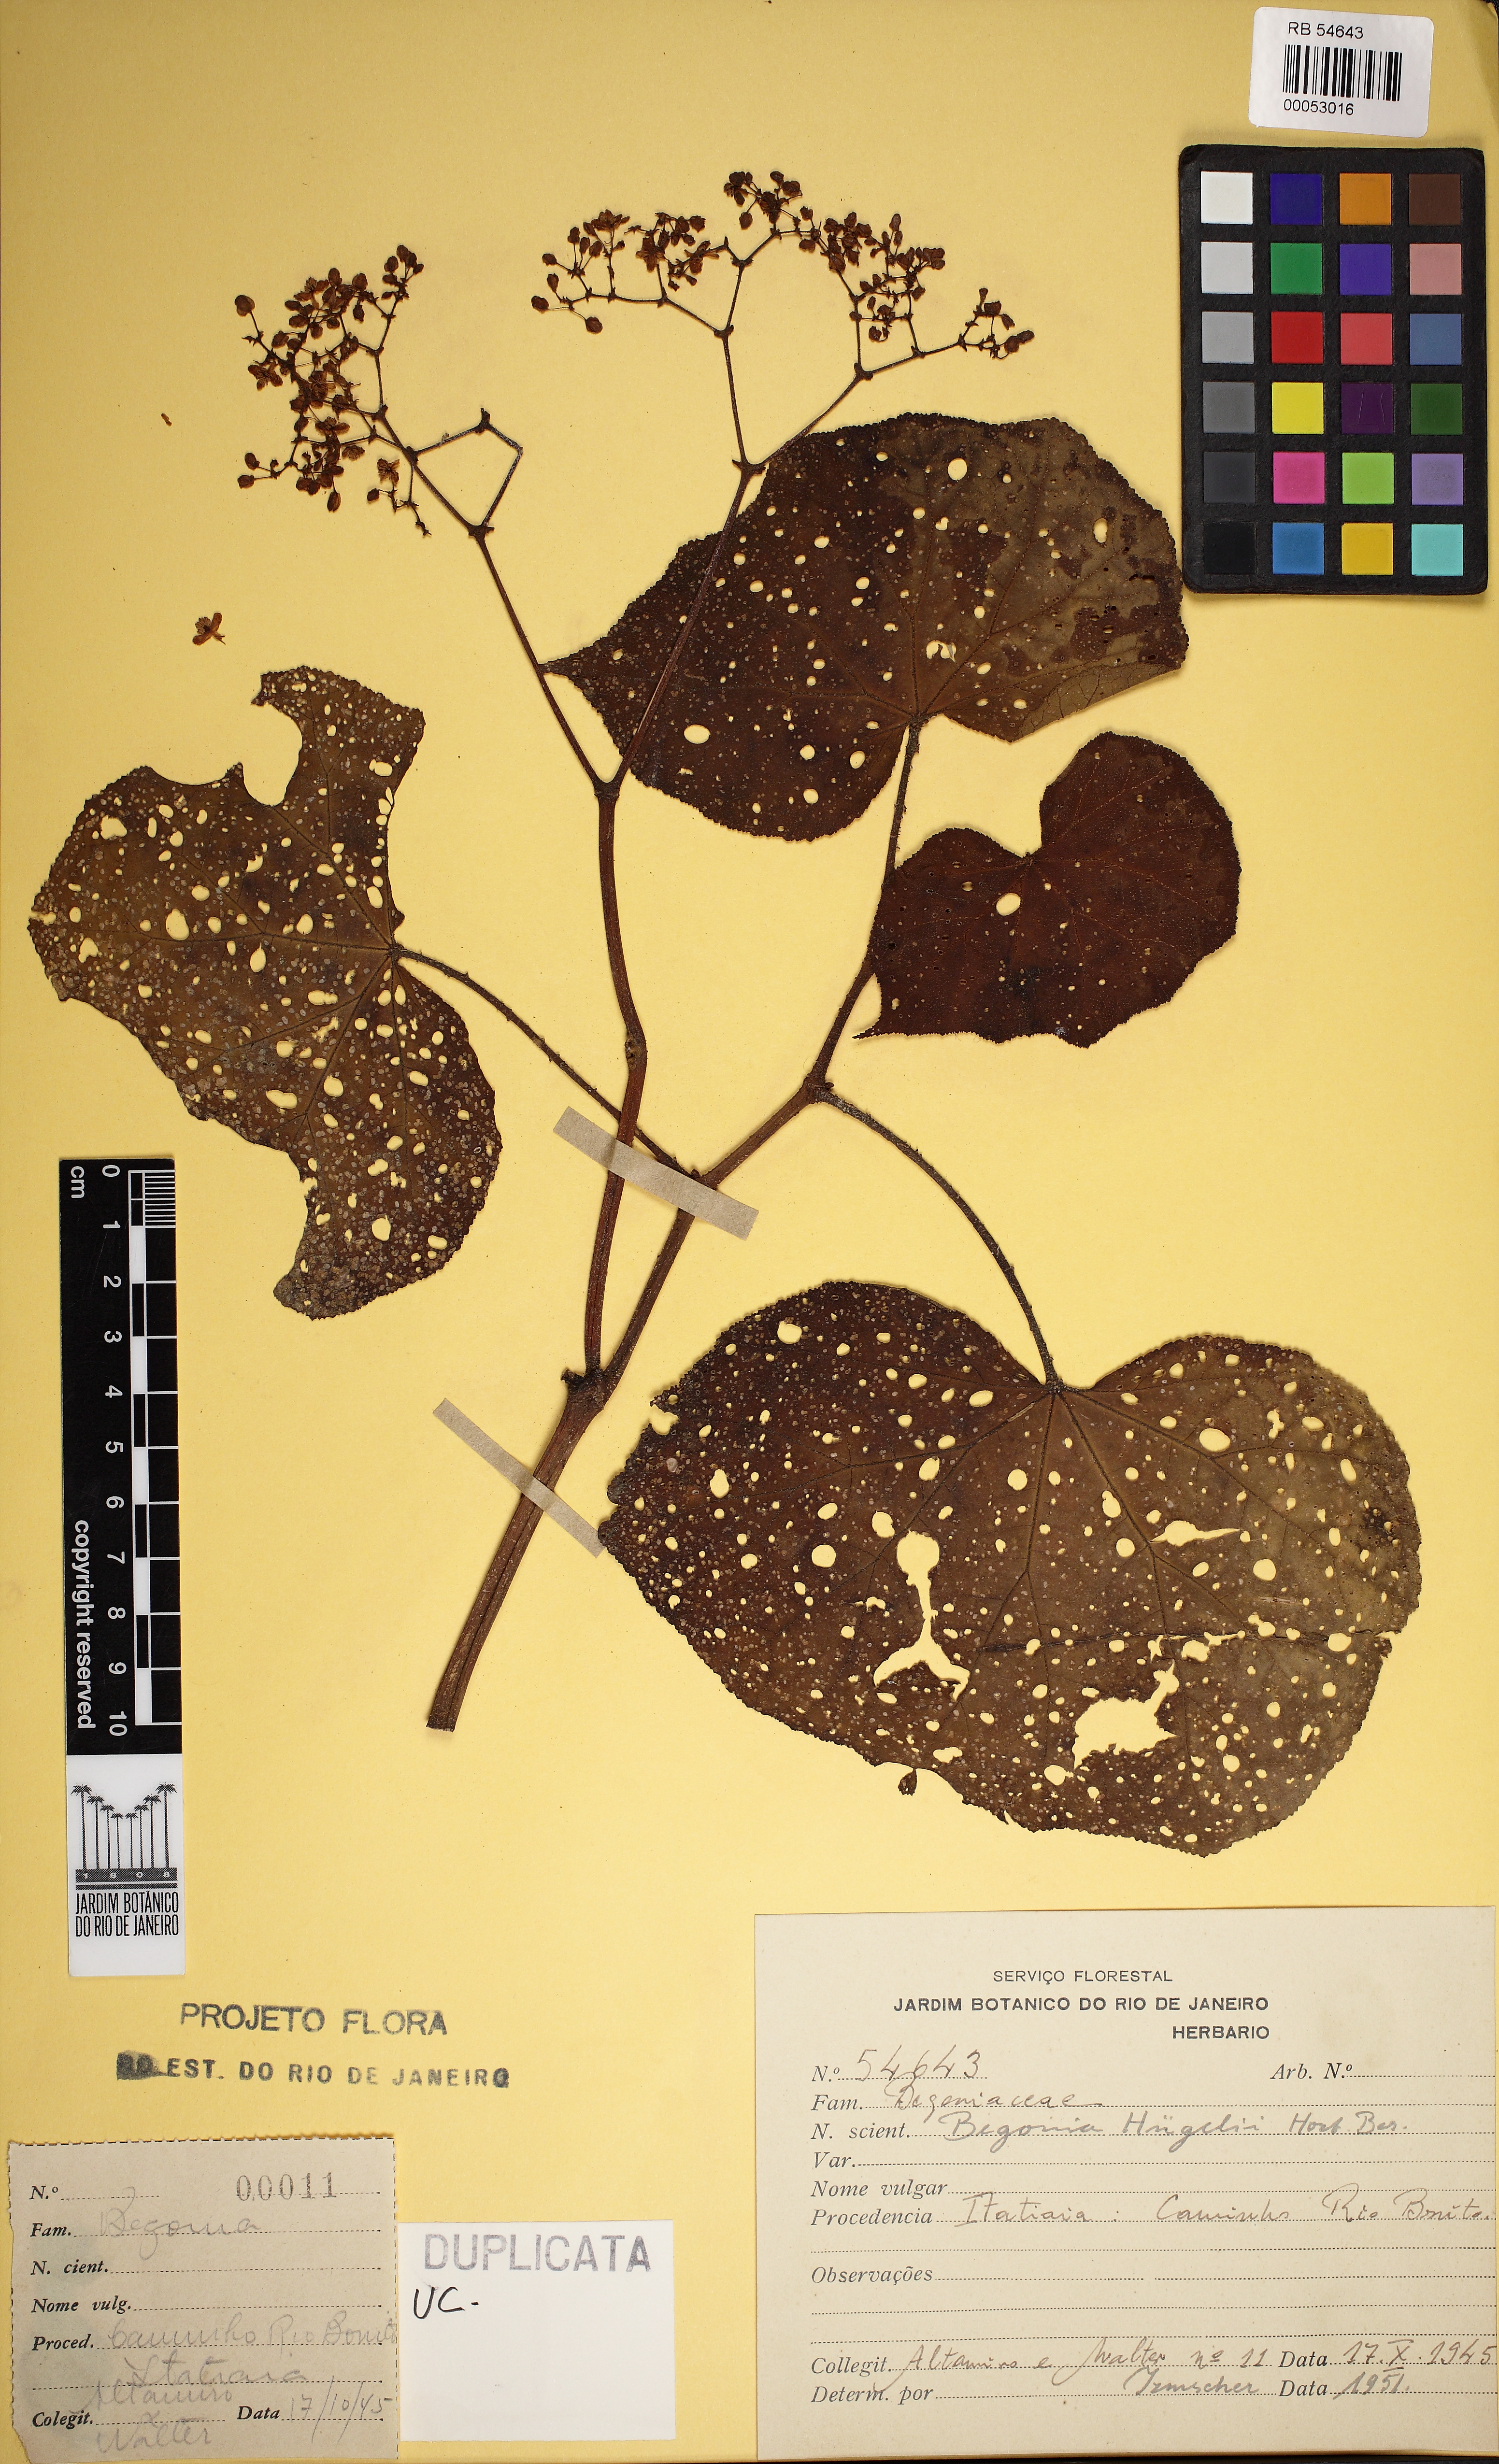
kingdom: Plantae
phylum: Tracheophyta
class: Magnoliopsida
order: Cucurbitales
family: Begoniaceae
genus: Begonia
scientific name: Begonia huegelii
